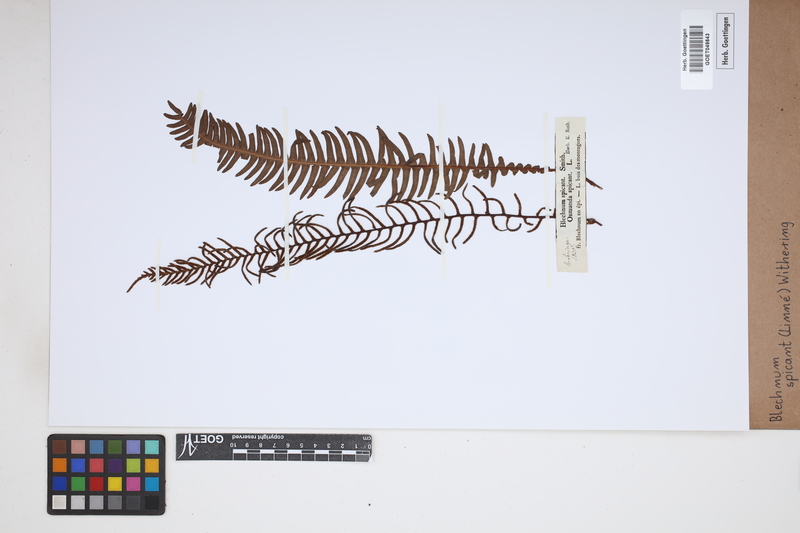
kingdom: Plantae
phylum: Tracheophyta
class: Polypodiopsida
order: Polypodiales
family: Blechnaceae
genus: Struthiopteris
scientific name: Struthiopteris spicant
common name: Deer fern
